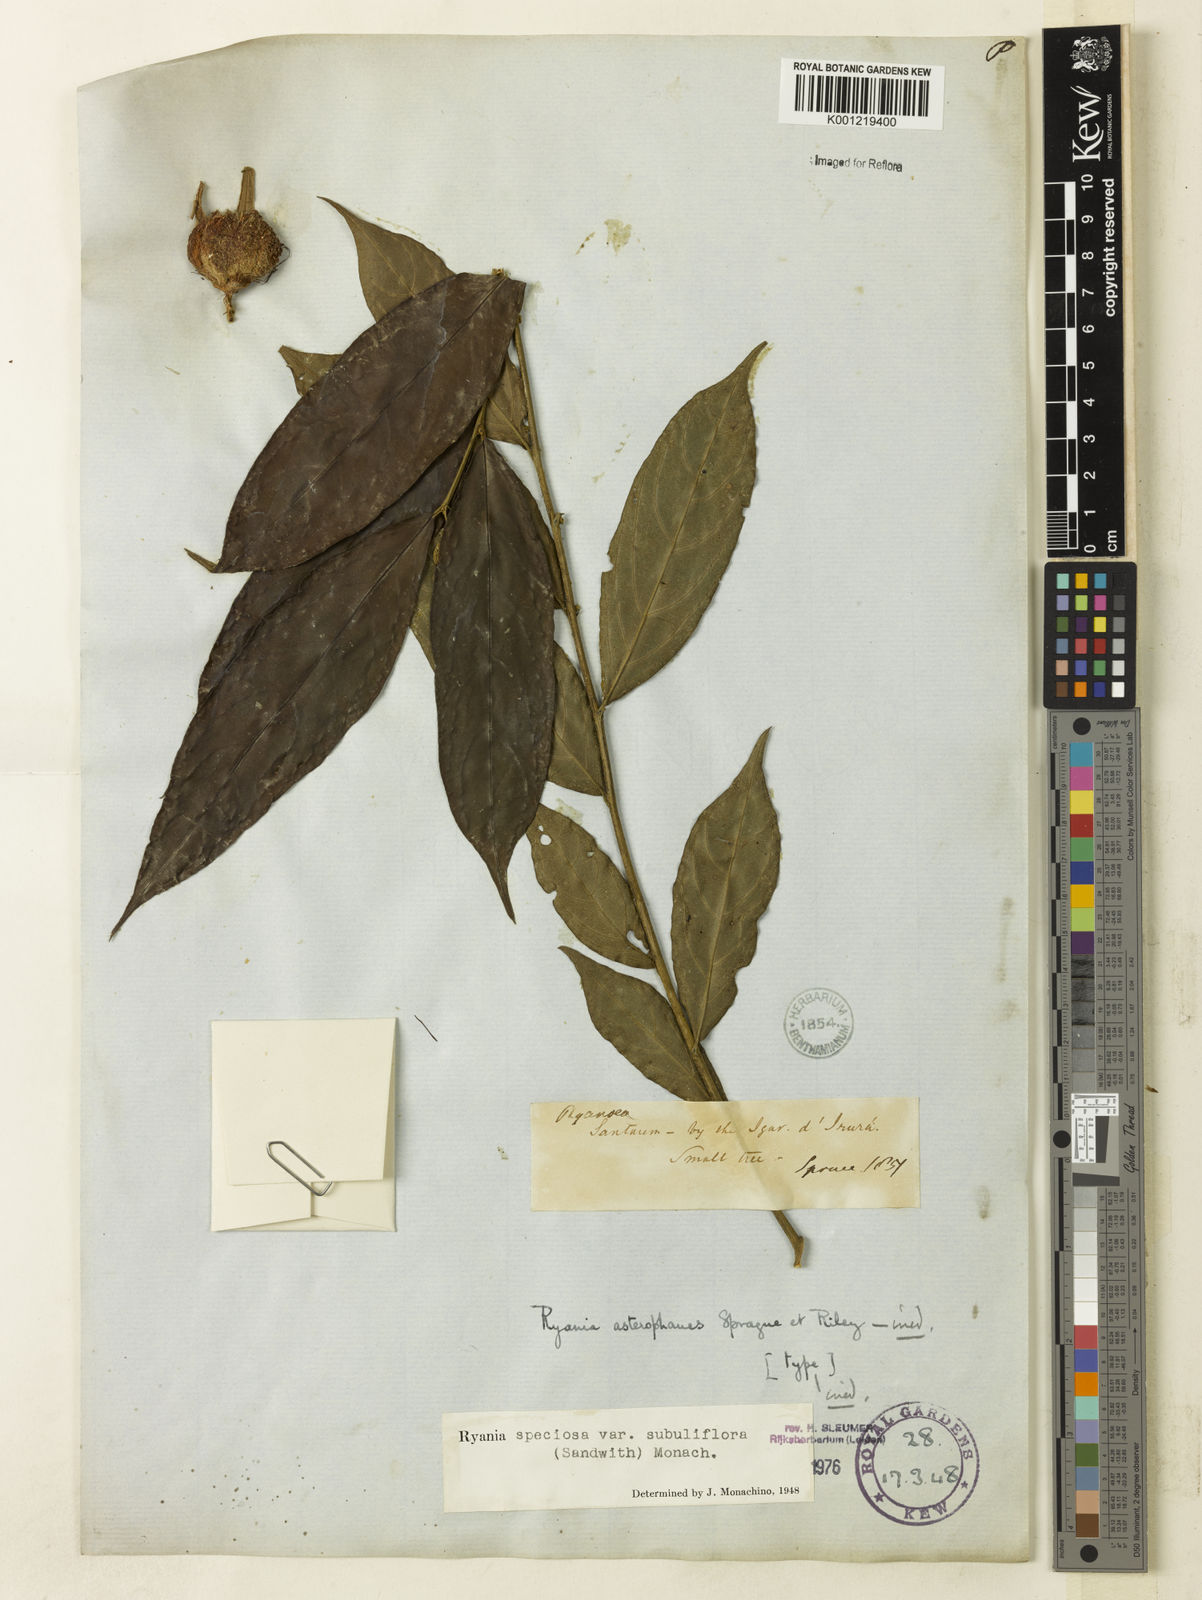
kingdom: Plantae
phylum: Tracheophyta
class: Magnoliopsida
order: Malpighiales
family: Salicaceae
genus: Ryania
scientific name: Ryania speciosa
